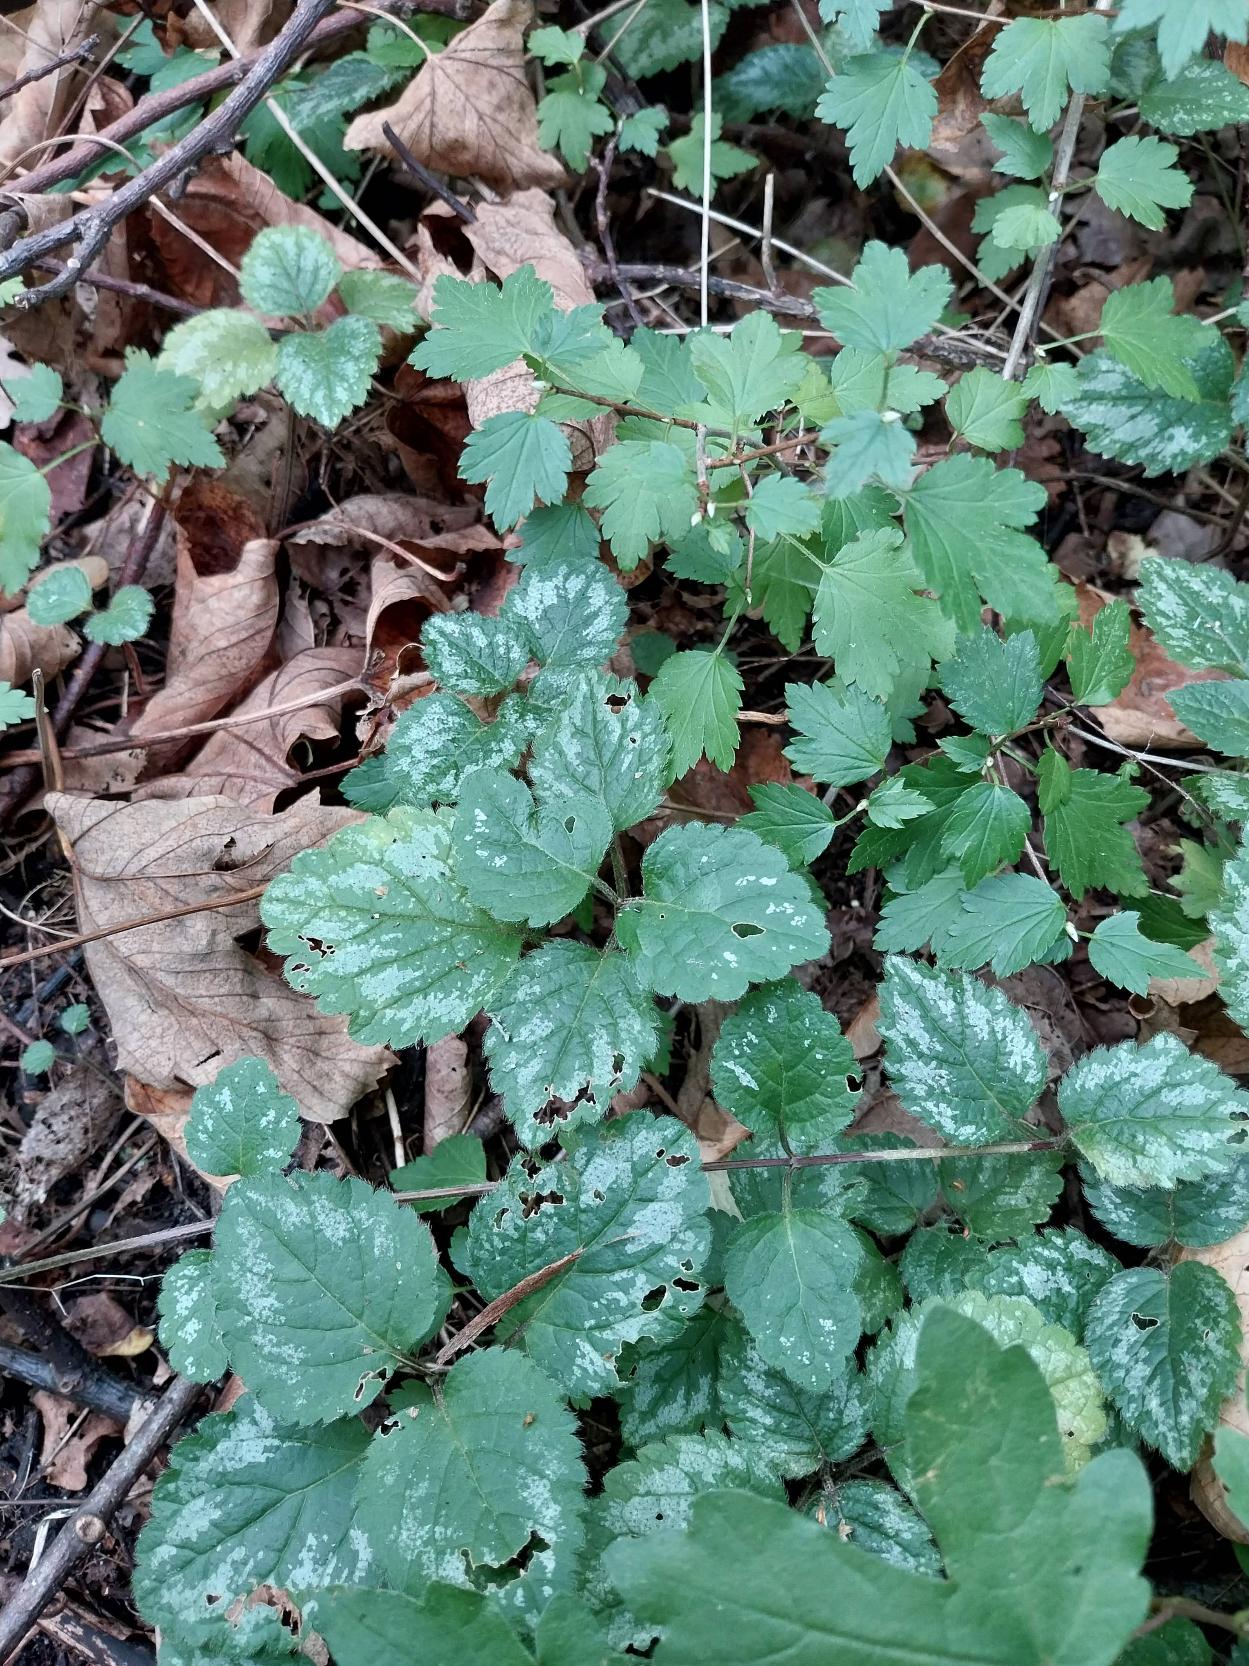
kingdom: Plantae
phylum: Tracheophyta
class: Magnoliopsida
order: Lamiales
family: Lamiaceae
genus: Lamium
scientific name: Lamium galeobdolon
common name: Have-guldnælde
